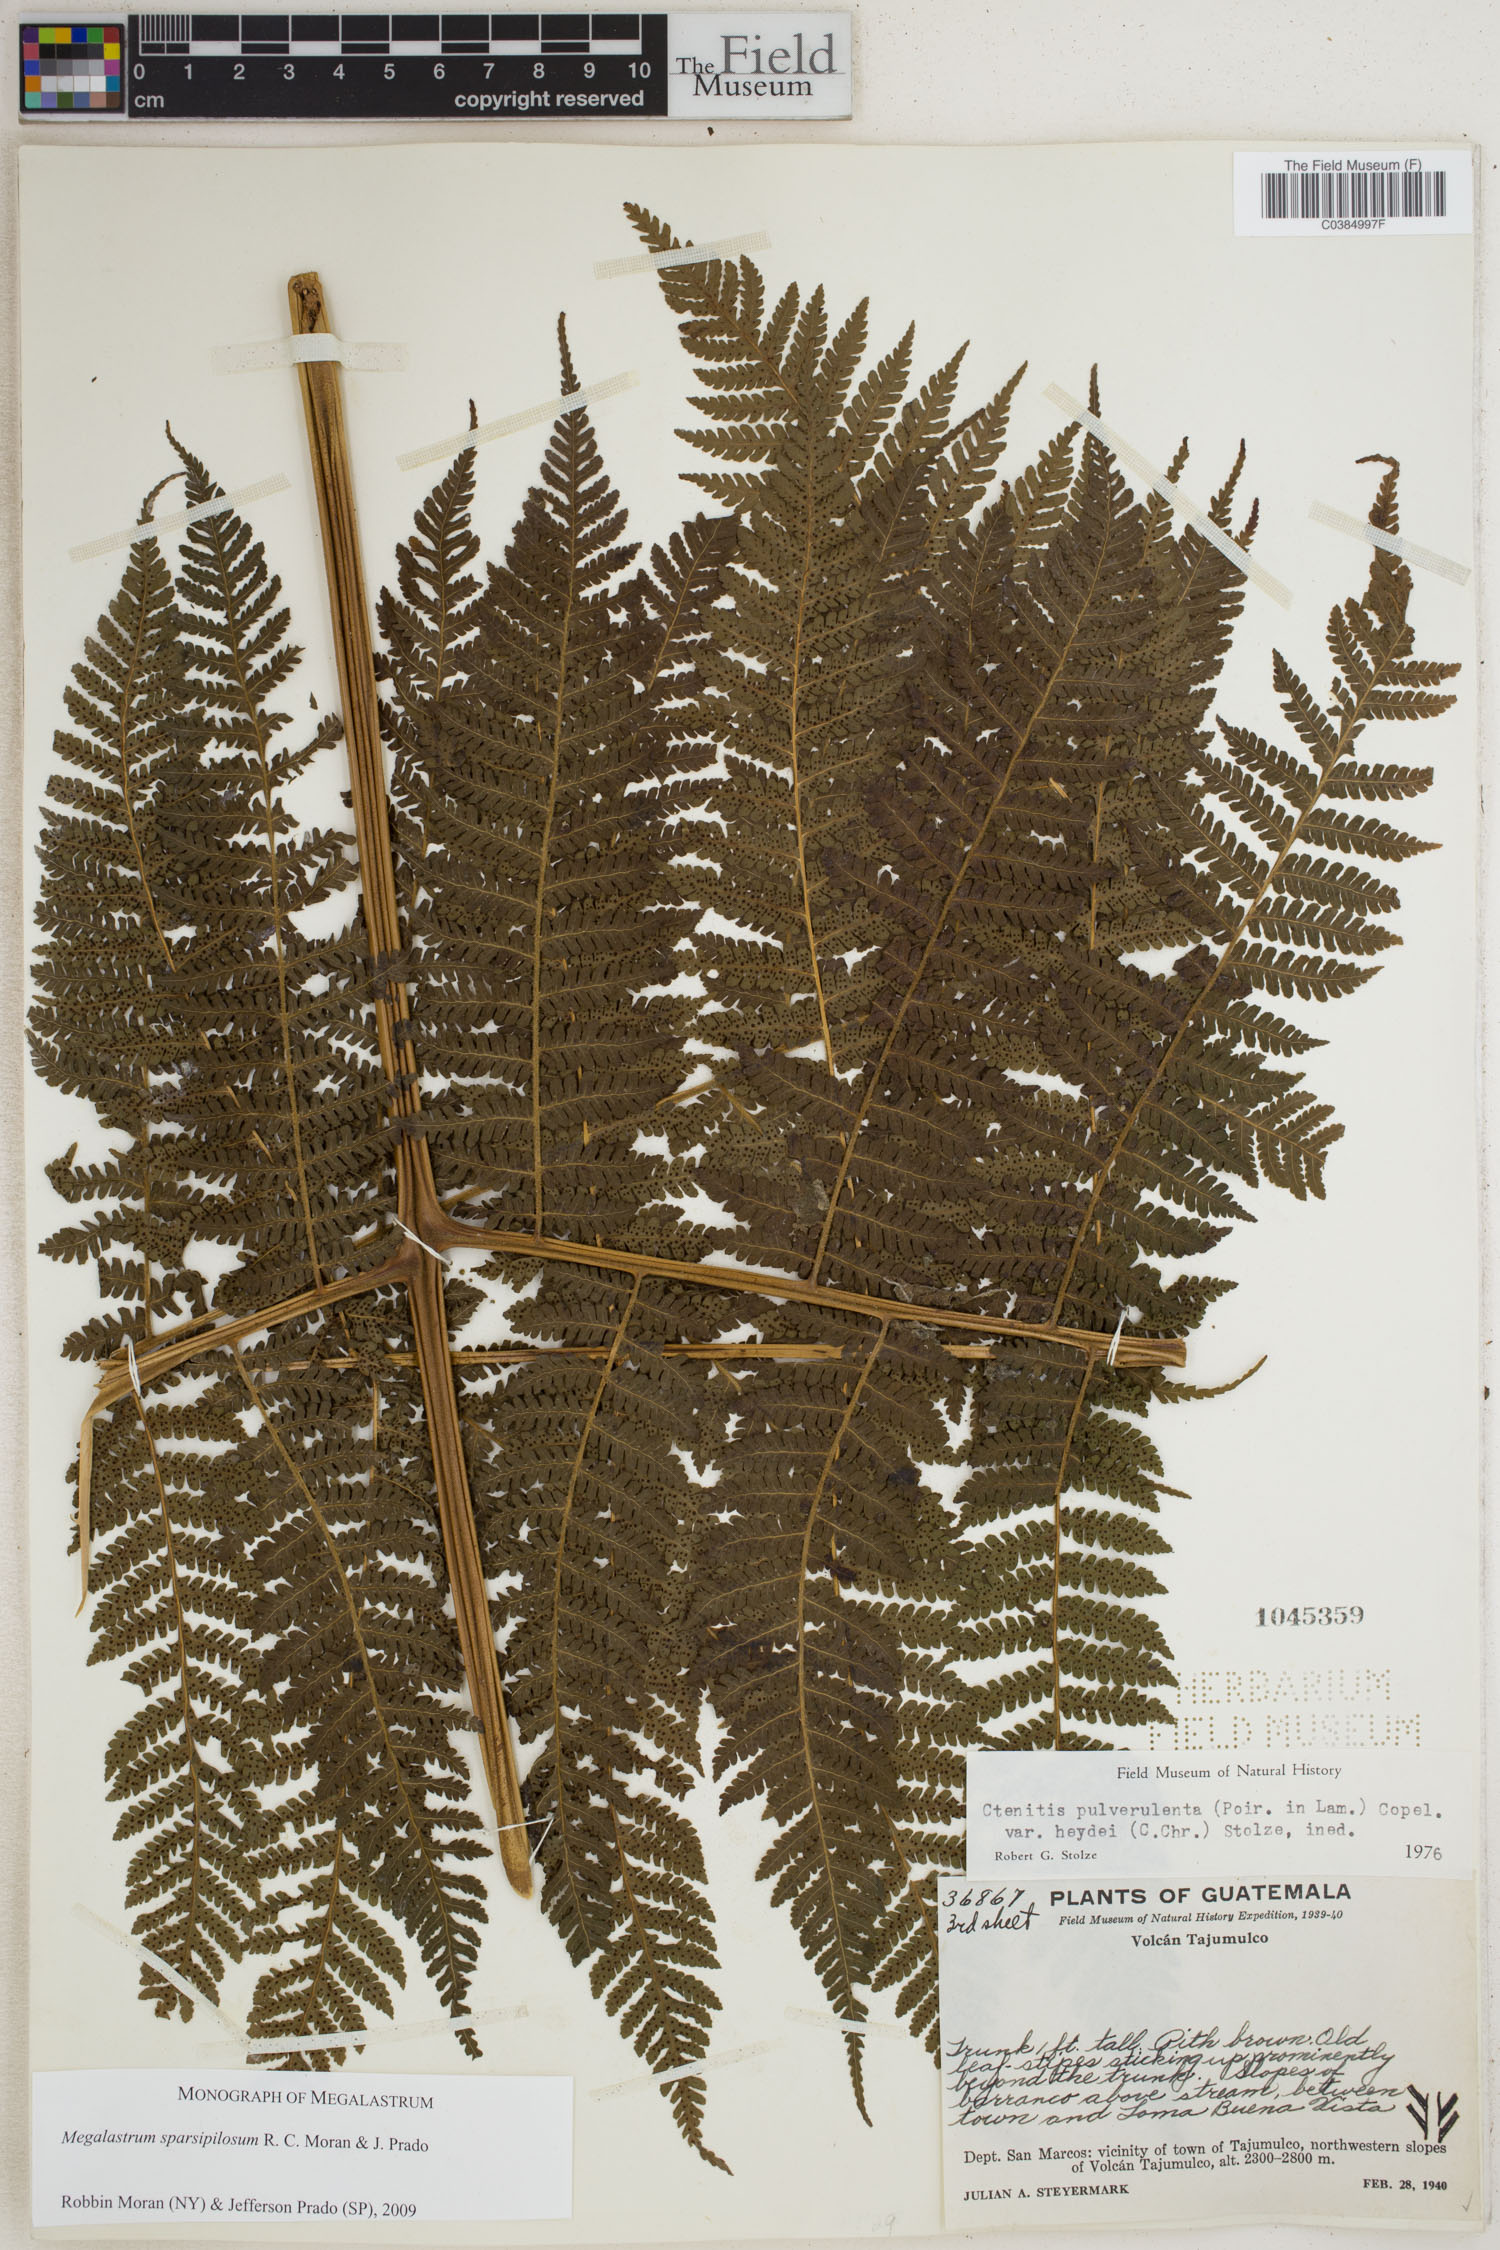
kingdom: Plantae
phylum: Tracheophyta
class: Polypodiopsida
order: Polypodiales
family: Dryopteridaceae
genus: Megalastrum
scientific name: Megalastrum sparsipilosum
